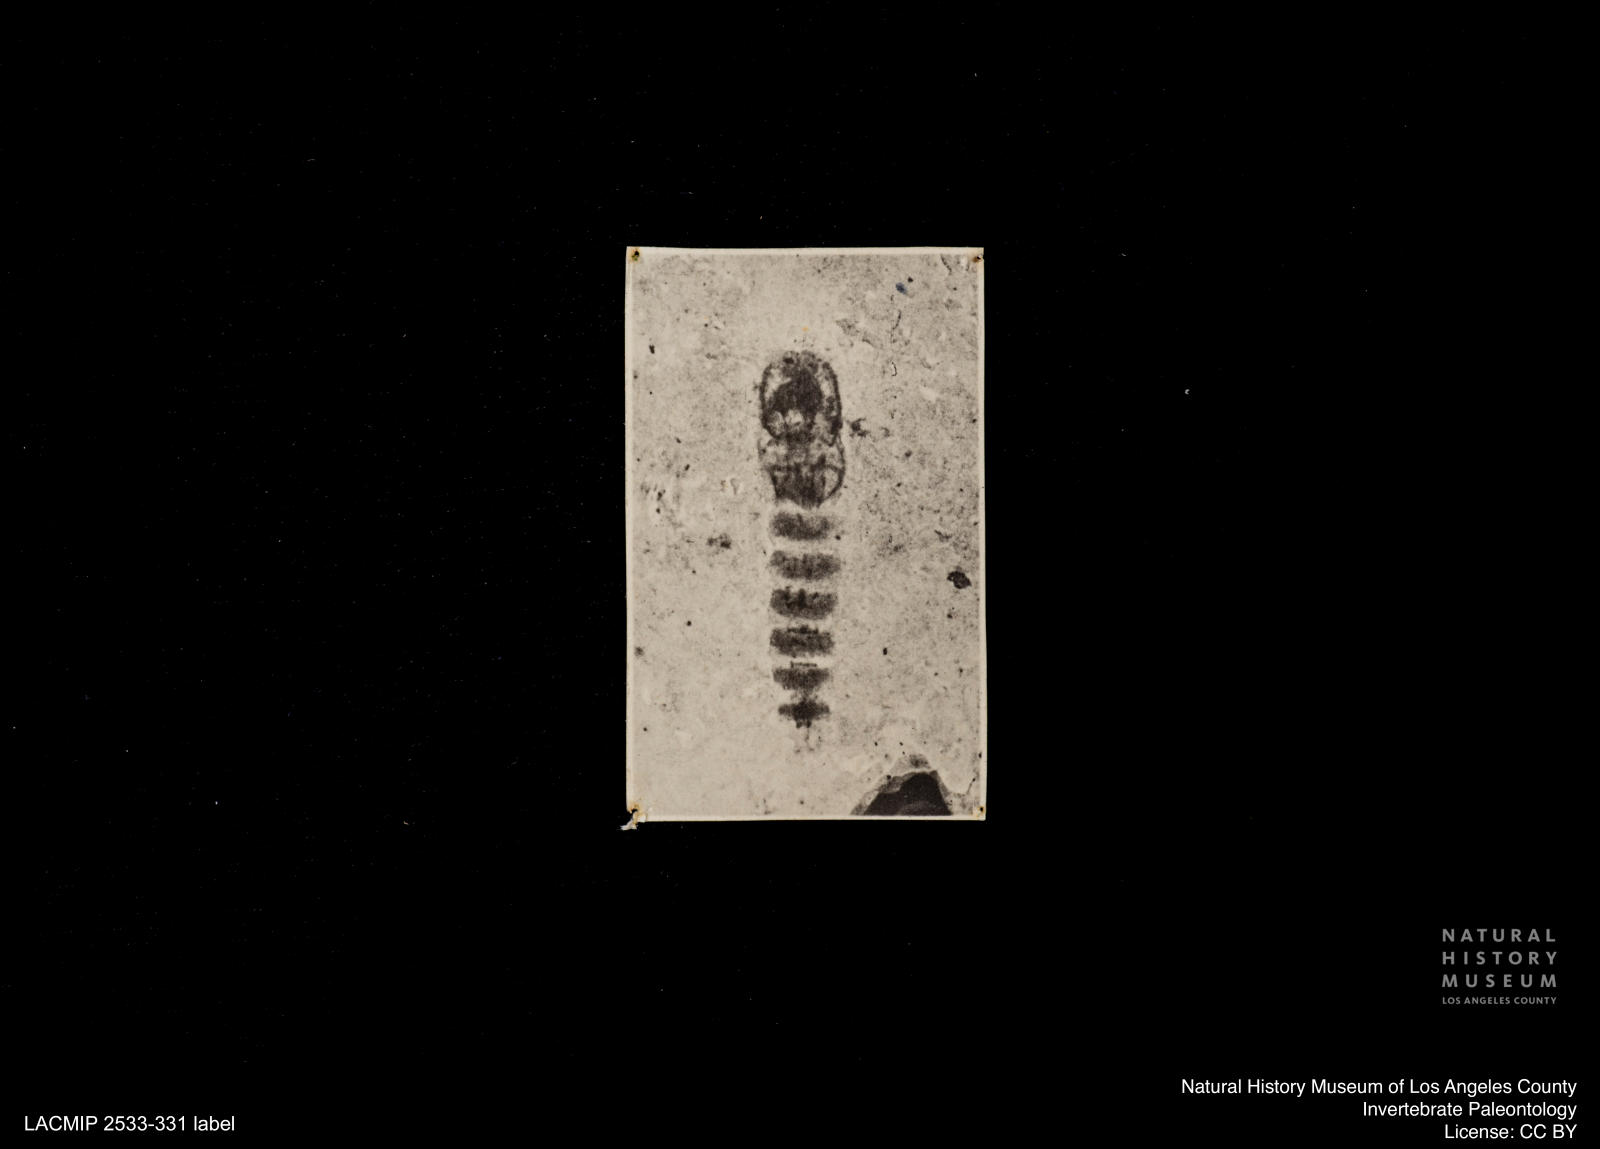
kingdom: Animalia
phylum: Arthropoda
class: Insecta
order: Diptera
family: Ceratopogonidae
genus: Ceratopogon
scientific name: Ceratopogon
